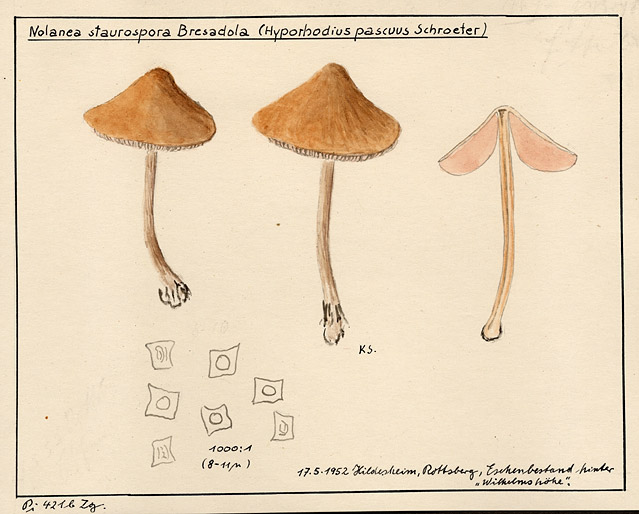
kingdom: Fungi
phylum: Basidiomycota
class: Agaricomycetes
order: Agaricales
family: Entolomataceae
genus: Entoloma
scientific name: Entoloma conferendum
